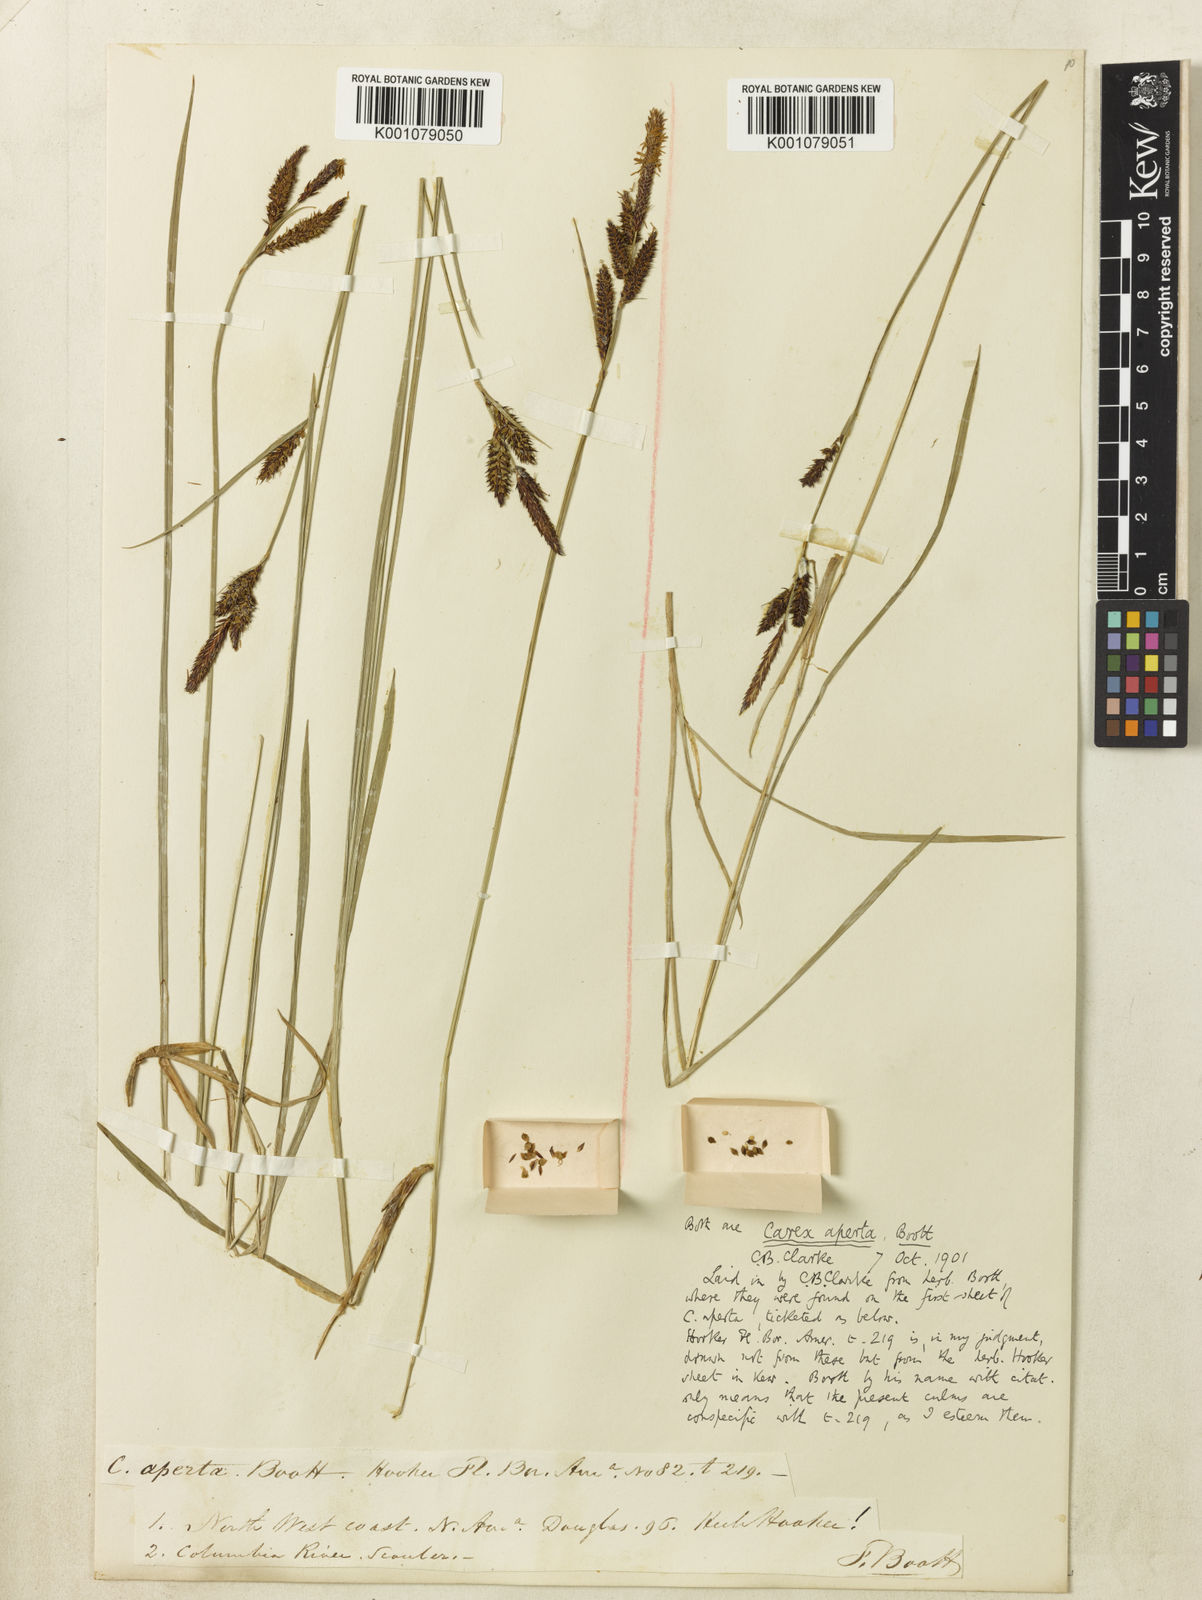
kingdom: Plantae
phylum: Tracheophyta
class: Liliopsida
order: Poales
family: Cyperaceae
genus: Carex
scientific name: Carex aperta
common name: Columbia sedge
